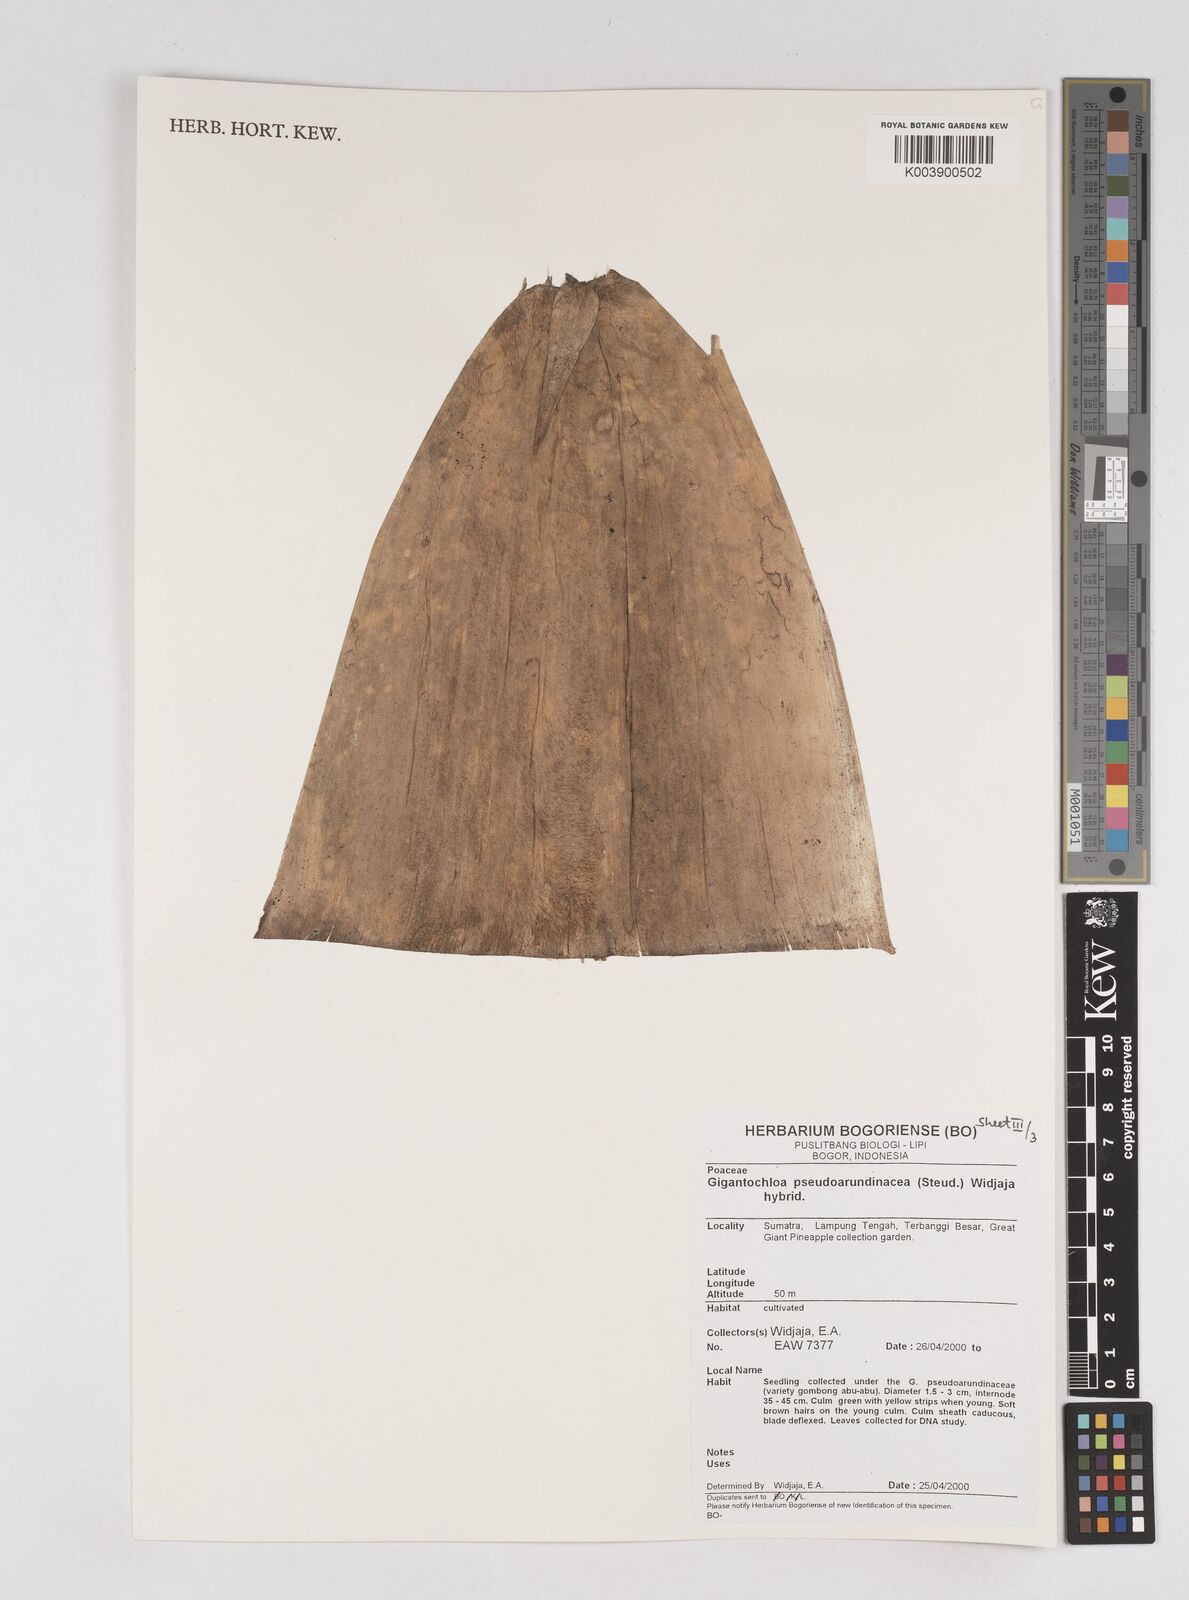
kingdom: Plantae
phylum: Tracheophyta
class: Liliopsida
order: Poales
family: Poaceae
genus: Gigantochloa
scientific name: Gigantochloa verticillata
